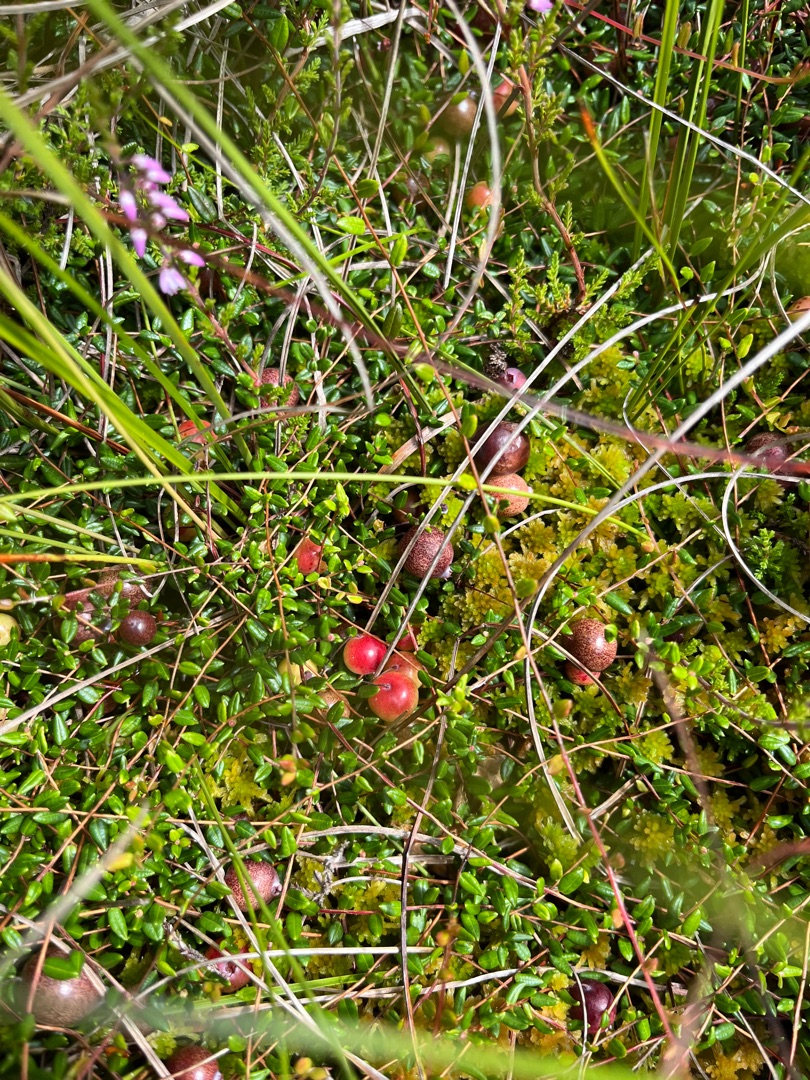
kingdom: Plantae
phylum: Tracheophyta
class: Magnoliopsida
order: Ericales
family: Ericaceae
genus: Vaccinium
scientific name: Vaccinium oxycoccos
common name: Tranebær
